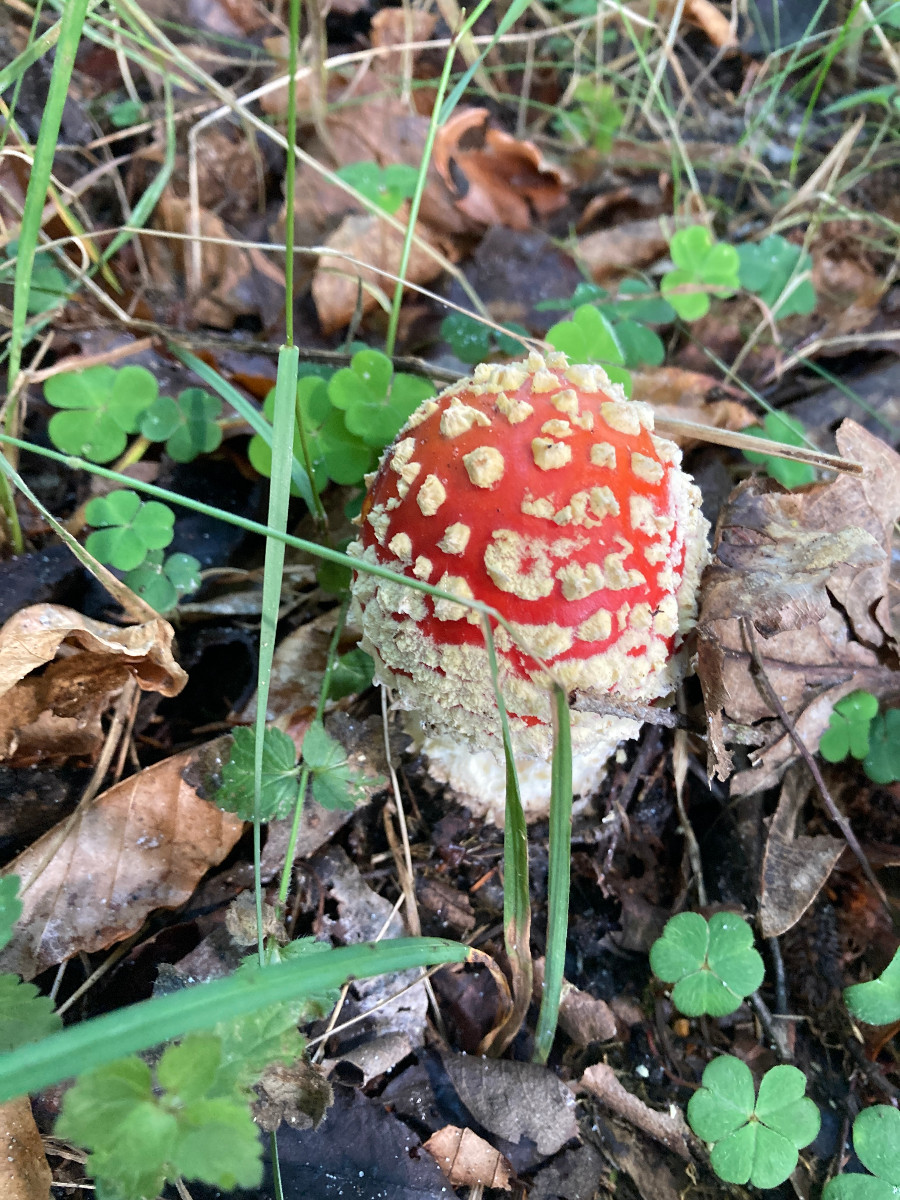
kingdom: Fungi
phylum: Basidiomycota
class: Agaricomycetes
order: Agaricales
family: Amanitaceae
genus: Amanita
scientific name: Amanita muscaria
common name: rød fluesvamp
